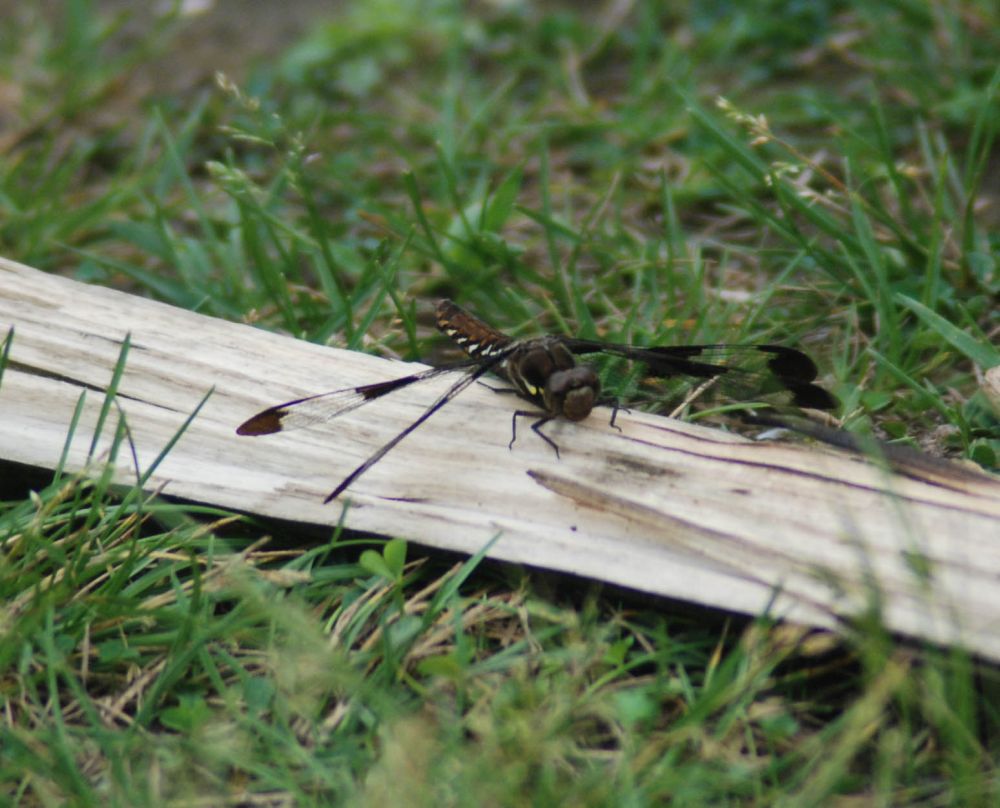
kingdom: Animalia
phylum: Arthropoda
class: Insecta
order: Odonata
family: Libellulidae
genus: Plathemis
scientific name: Plathemis lydia
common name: Common whitetail
